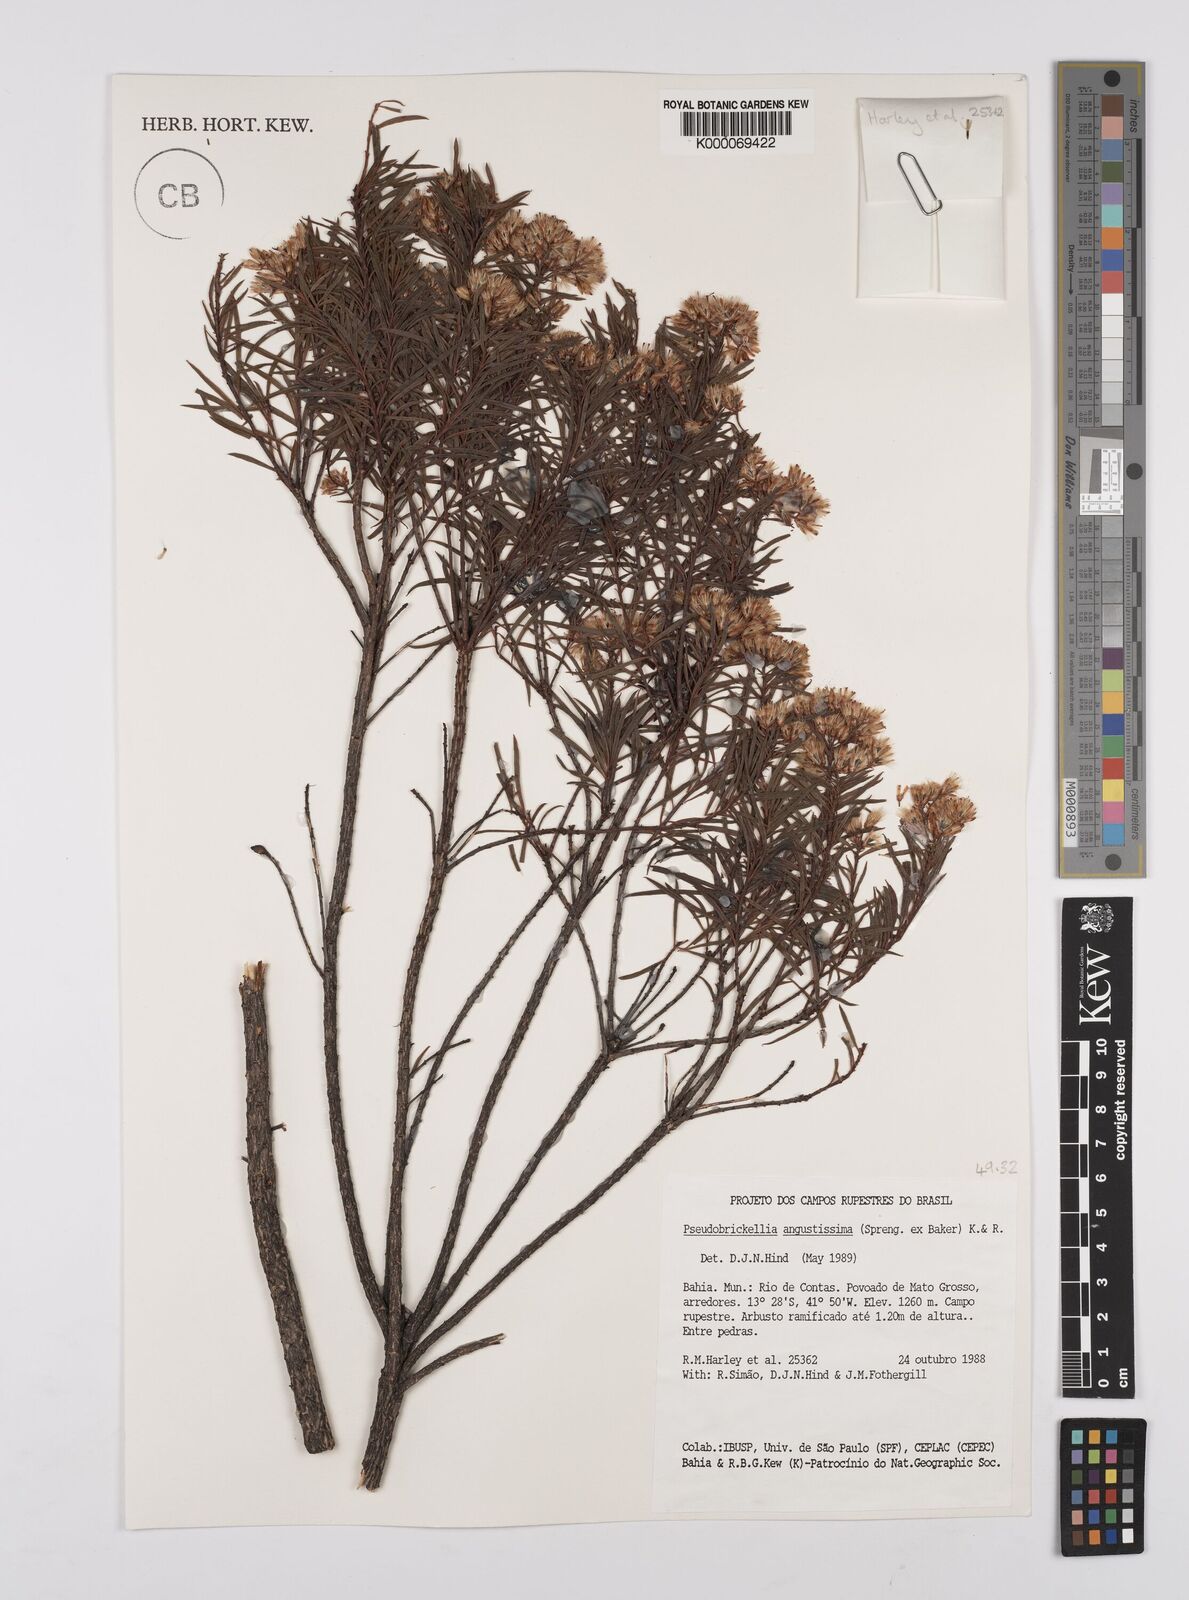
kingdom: Plantae
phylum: Tracheophyta
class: Magnoliopsida
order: Asterales
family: Asteraceae
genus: Pseudobrickellia
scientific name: Pseudobrickellia angustissima
